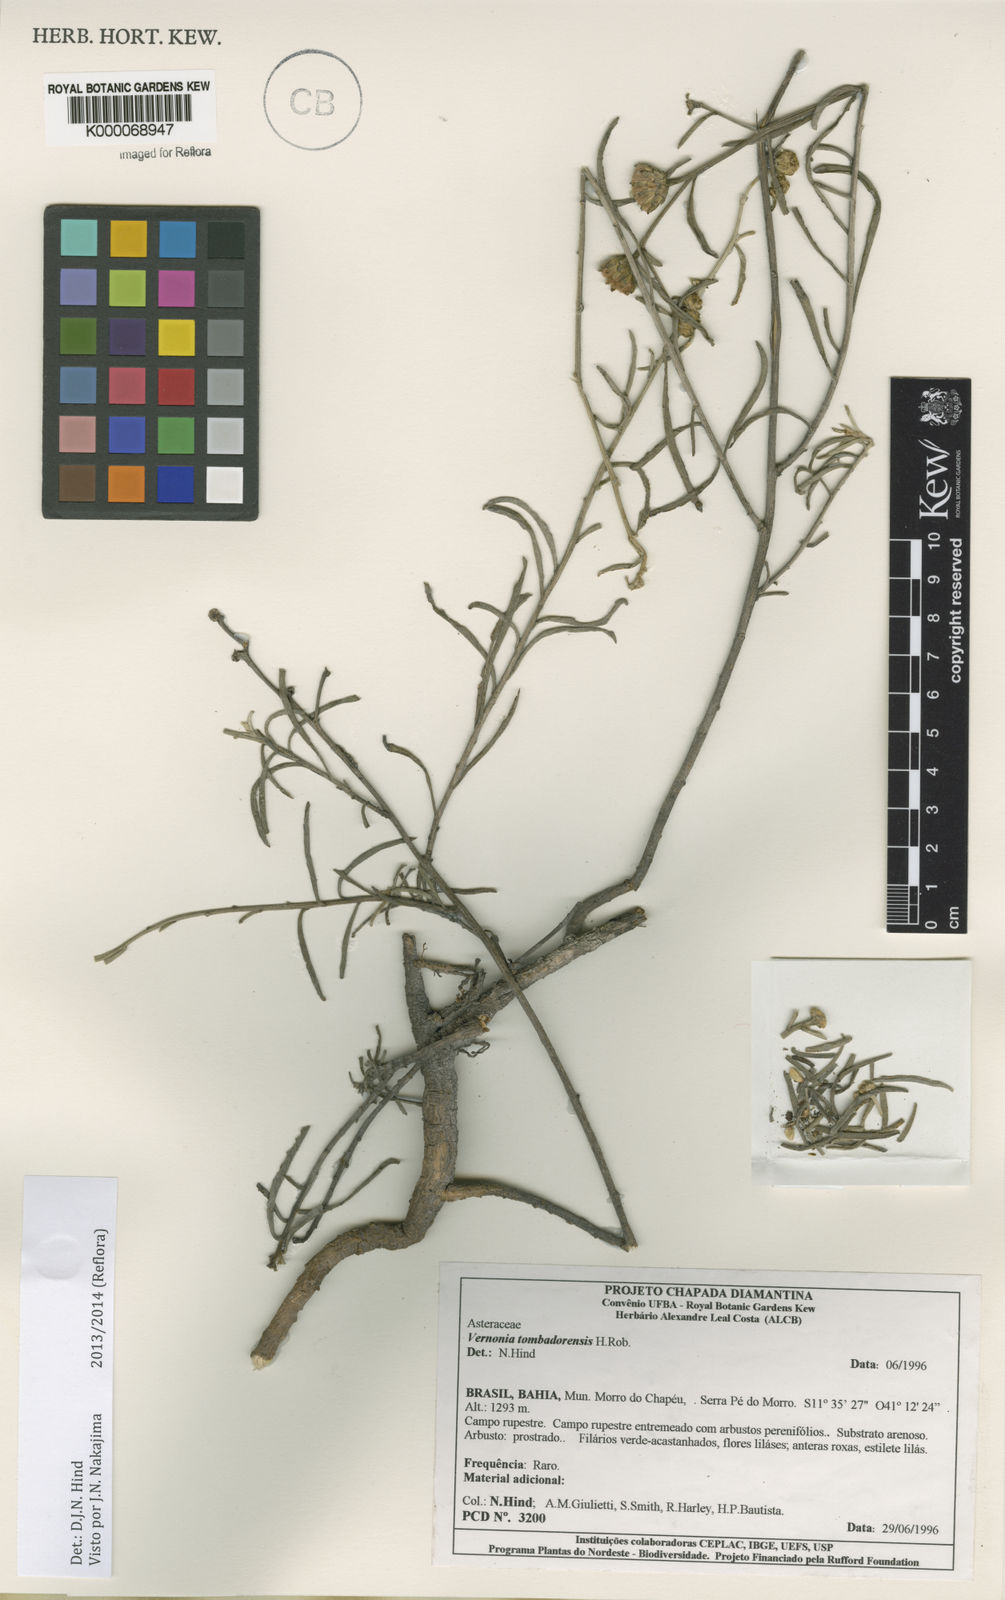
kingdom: Plantae
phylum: Tracheophyta
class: Magnoliopsida
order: Asterales
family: Asteraceae
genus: Lepidaploa
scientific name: Lepidaploa tombadorensis
